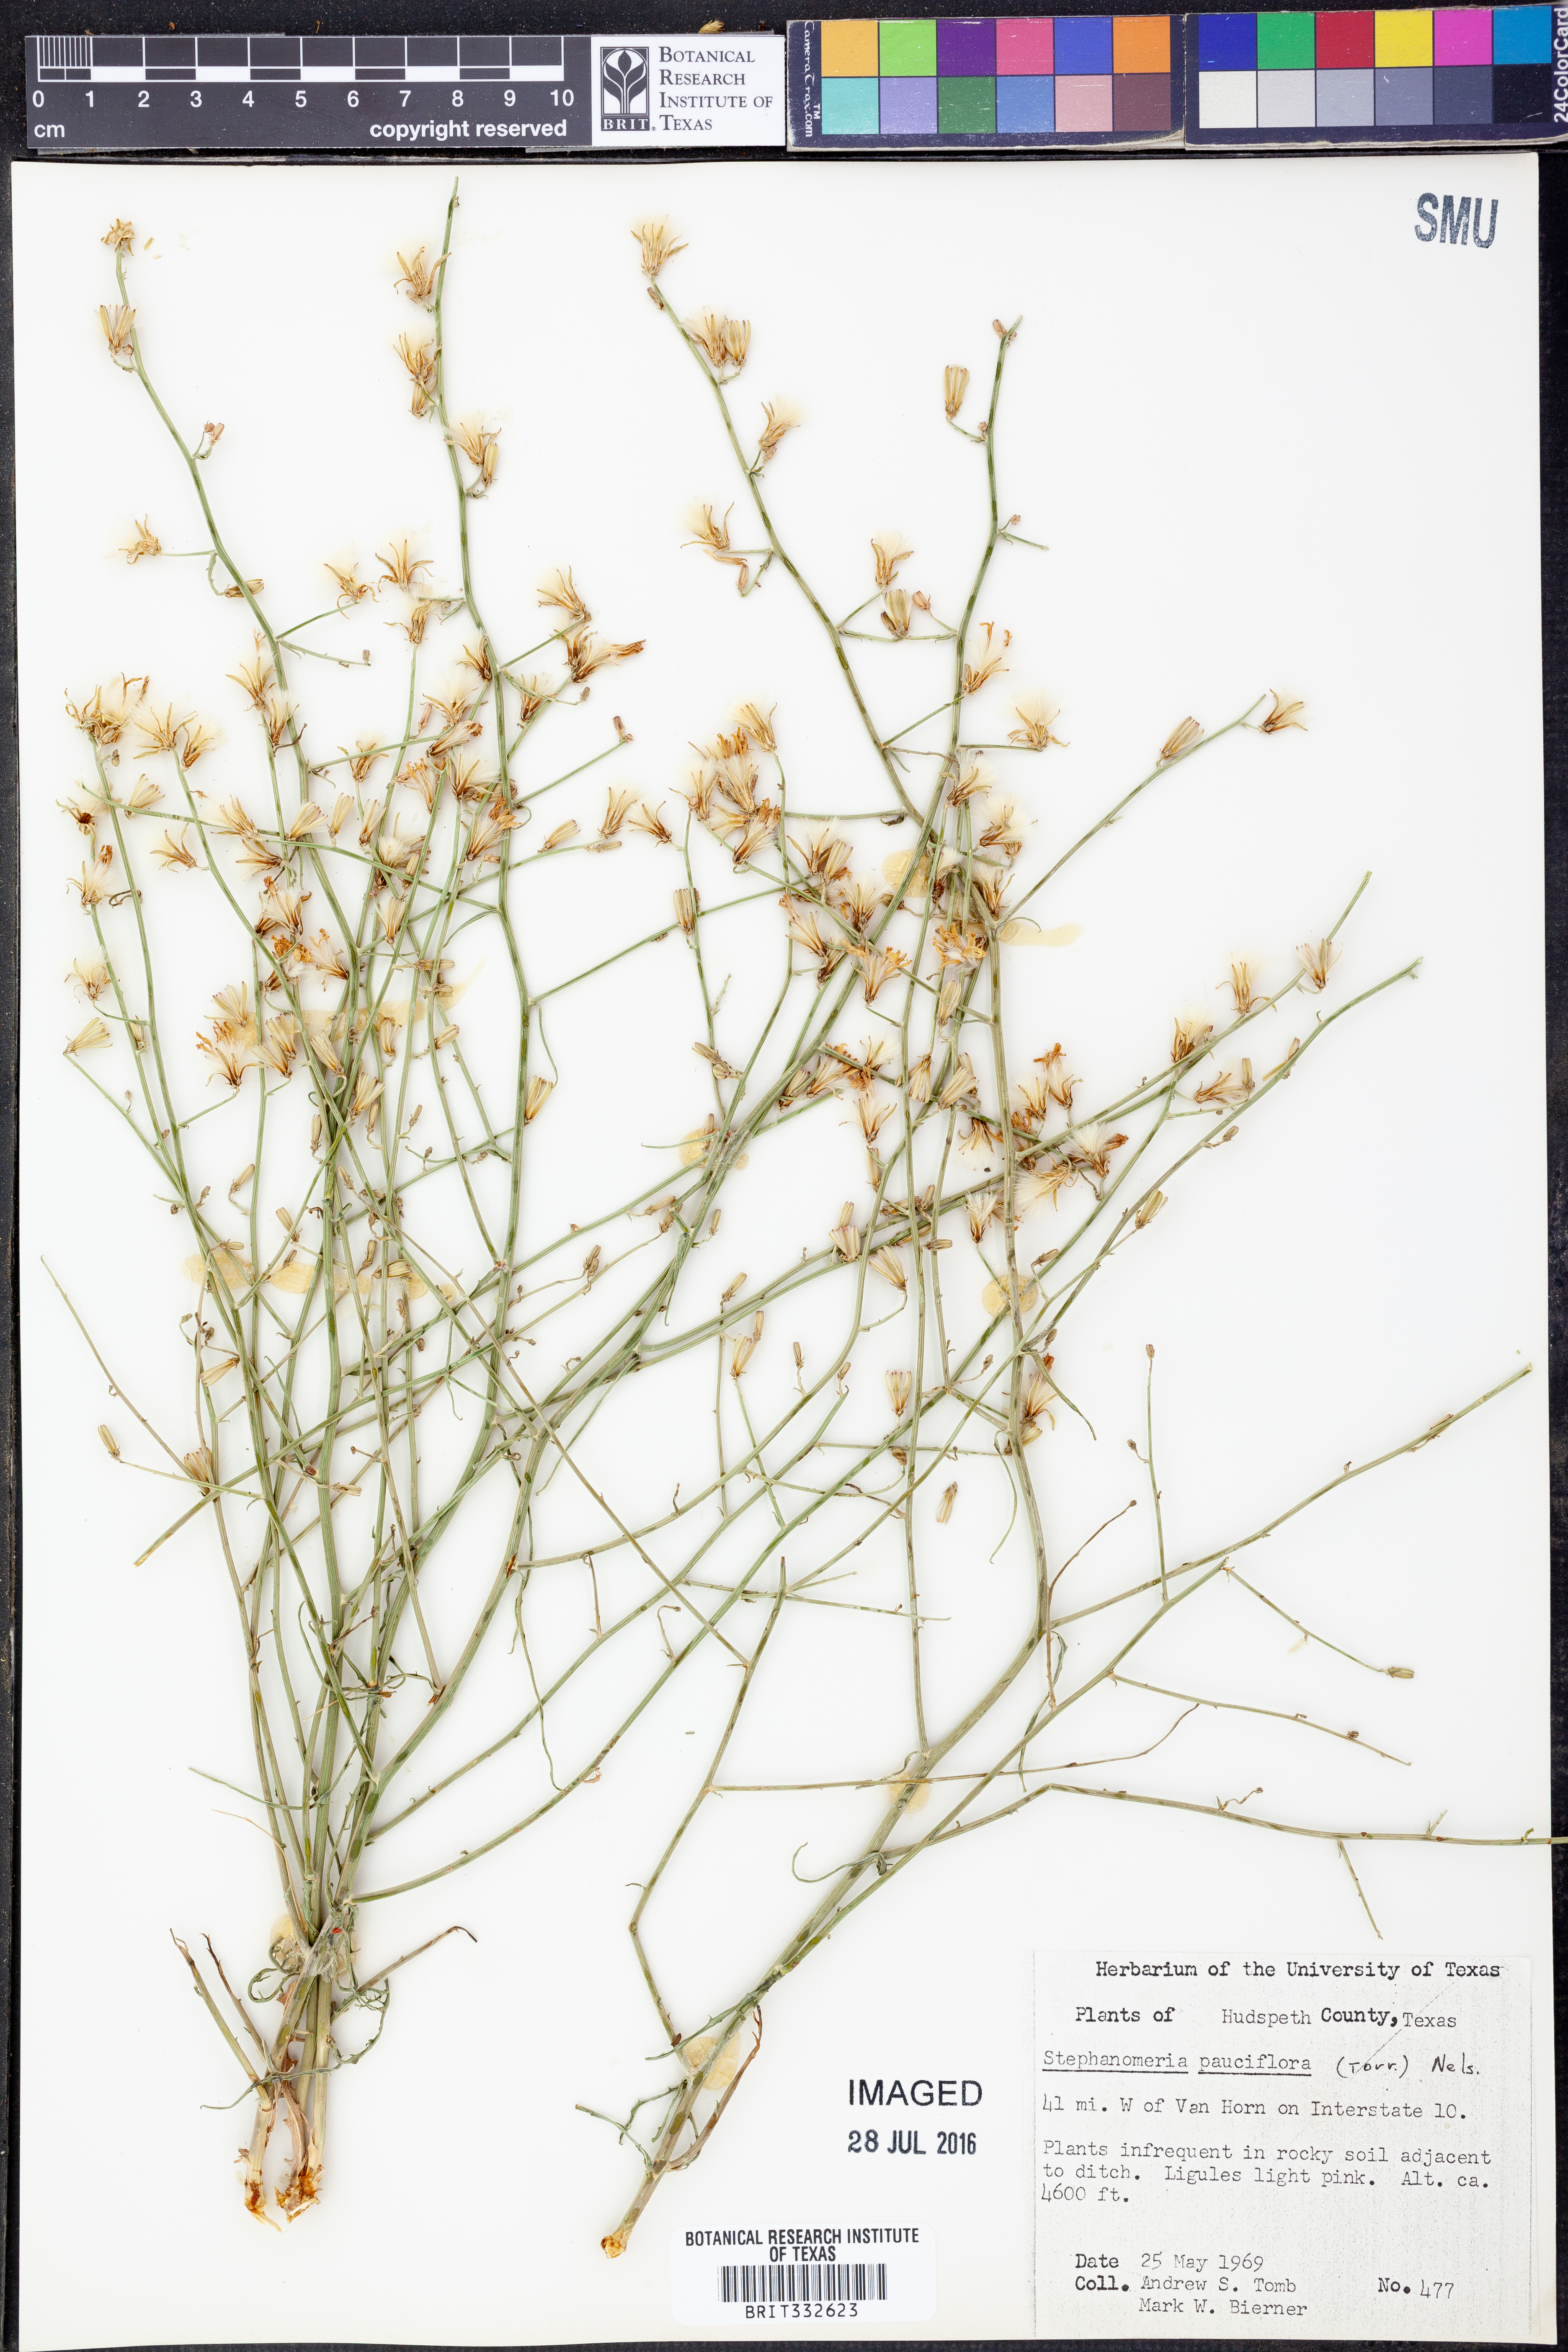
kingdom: Plantae
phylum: Tracheophyta
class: Magnoliopsida
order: Asterales
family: Asteraceae
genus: Stephanomeria
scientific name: Stephanomeria pauciflora
